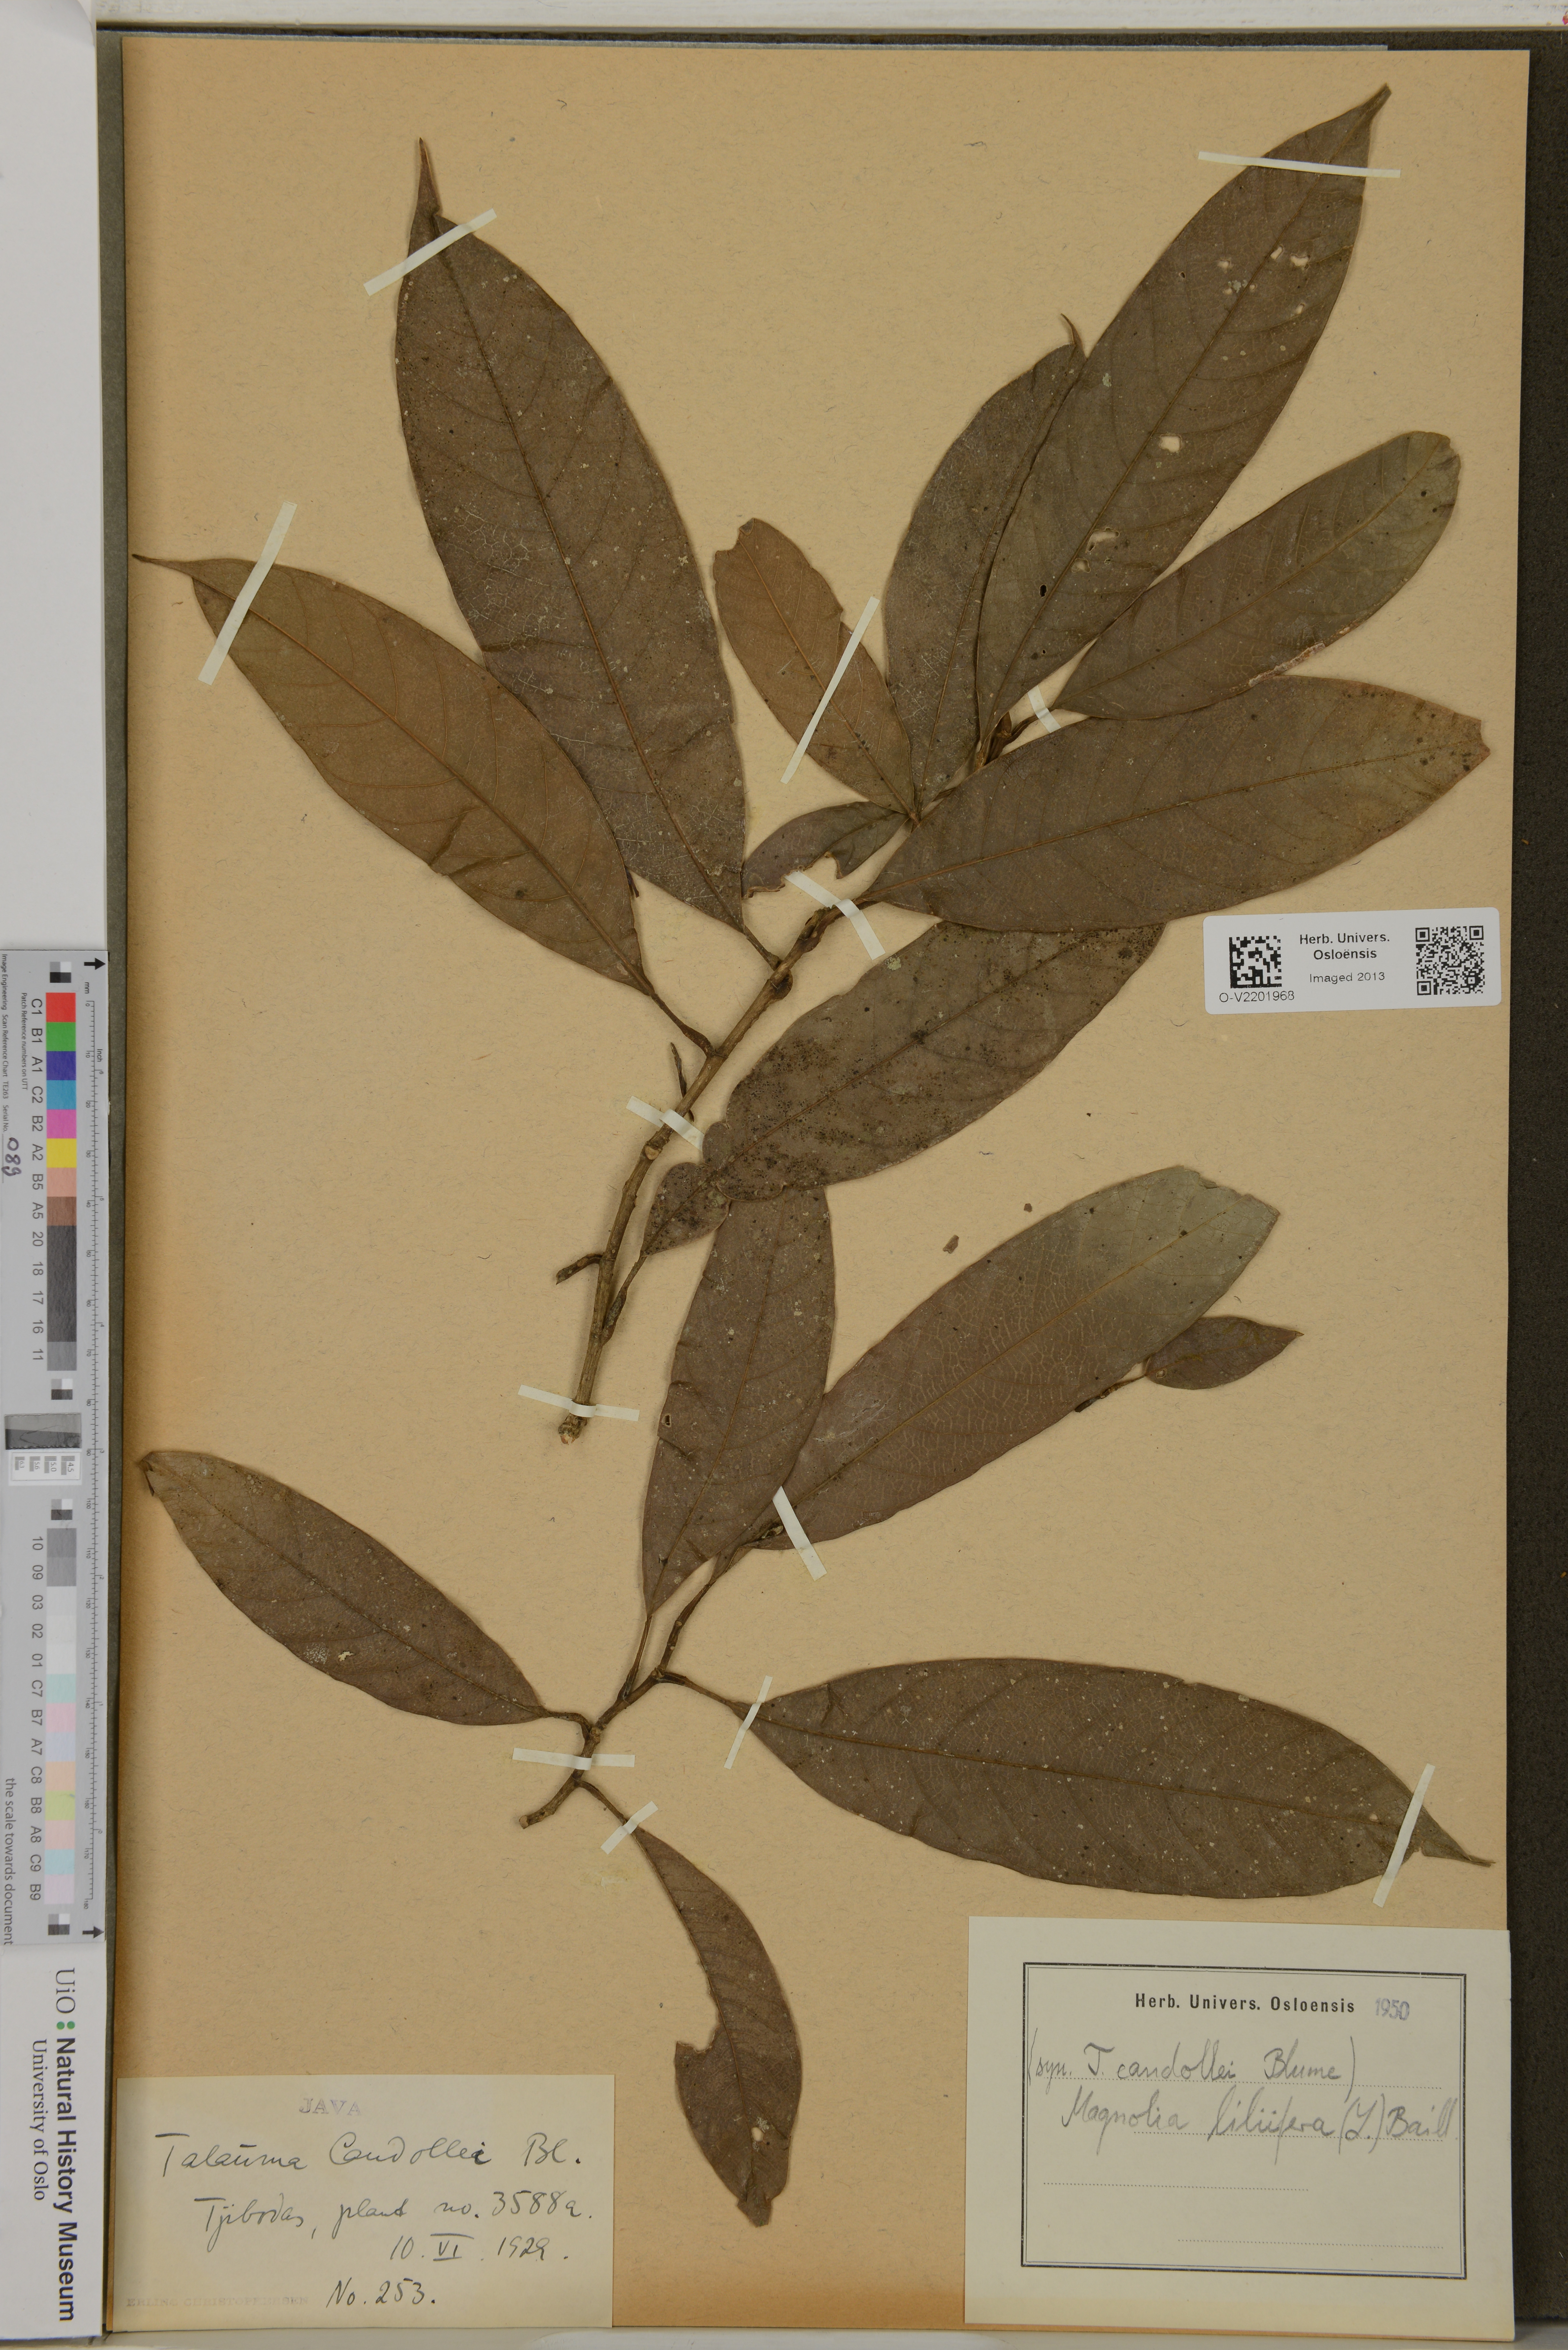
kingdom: Plantae
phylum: Tracheophyta
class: Magnoliopsida
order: Magnoliales
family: Magnoliaceae
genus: Magnolia
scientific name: Magnolia liliifera
